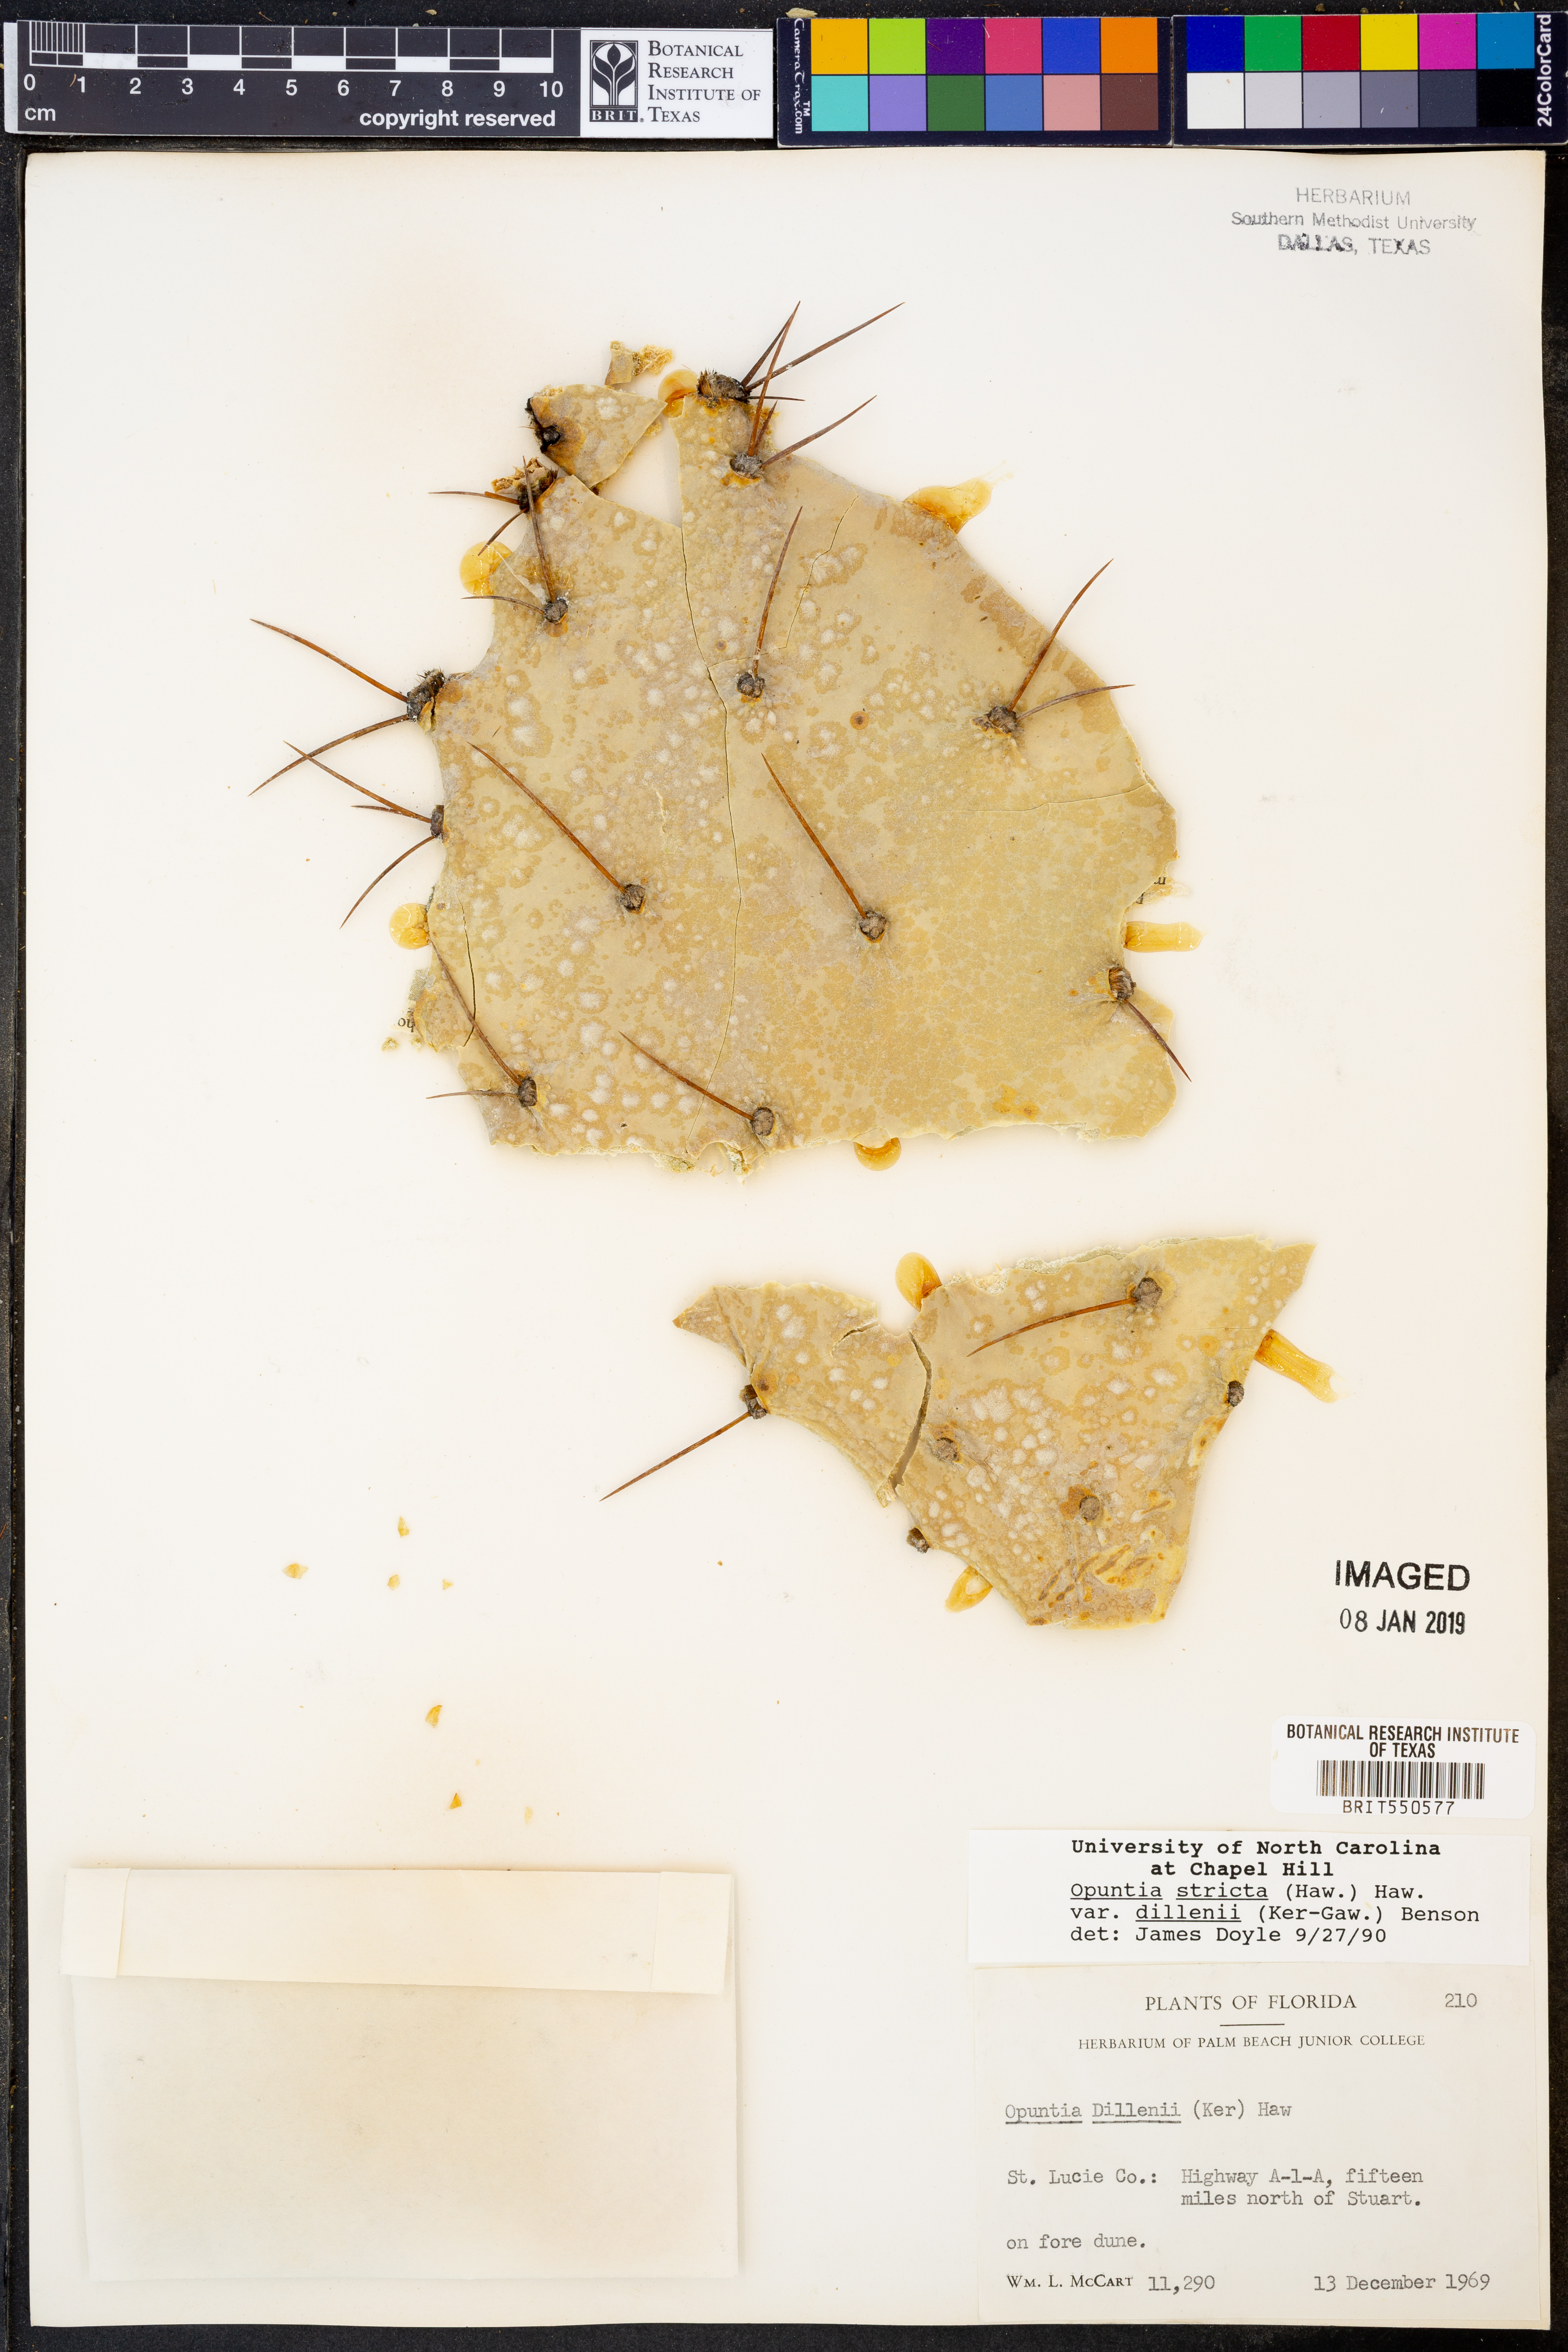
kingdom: Plantae
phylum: Tracheophyta
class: Magnoliopsida
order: Caryophyllales
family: Cactaceae
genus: Opuntia
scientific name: Opuntia dillenii
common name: Sour prickle
